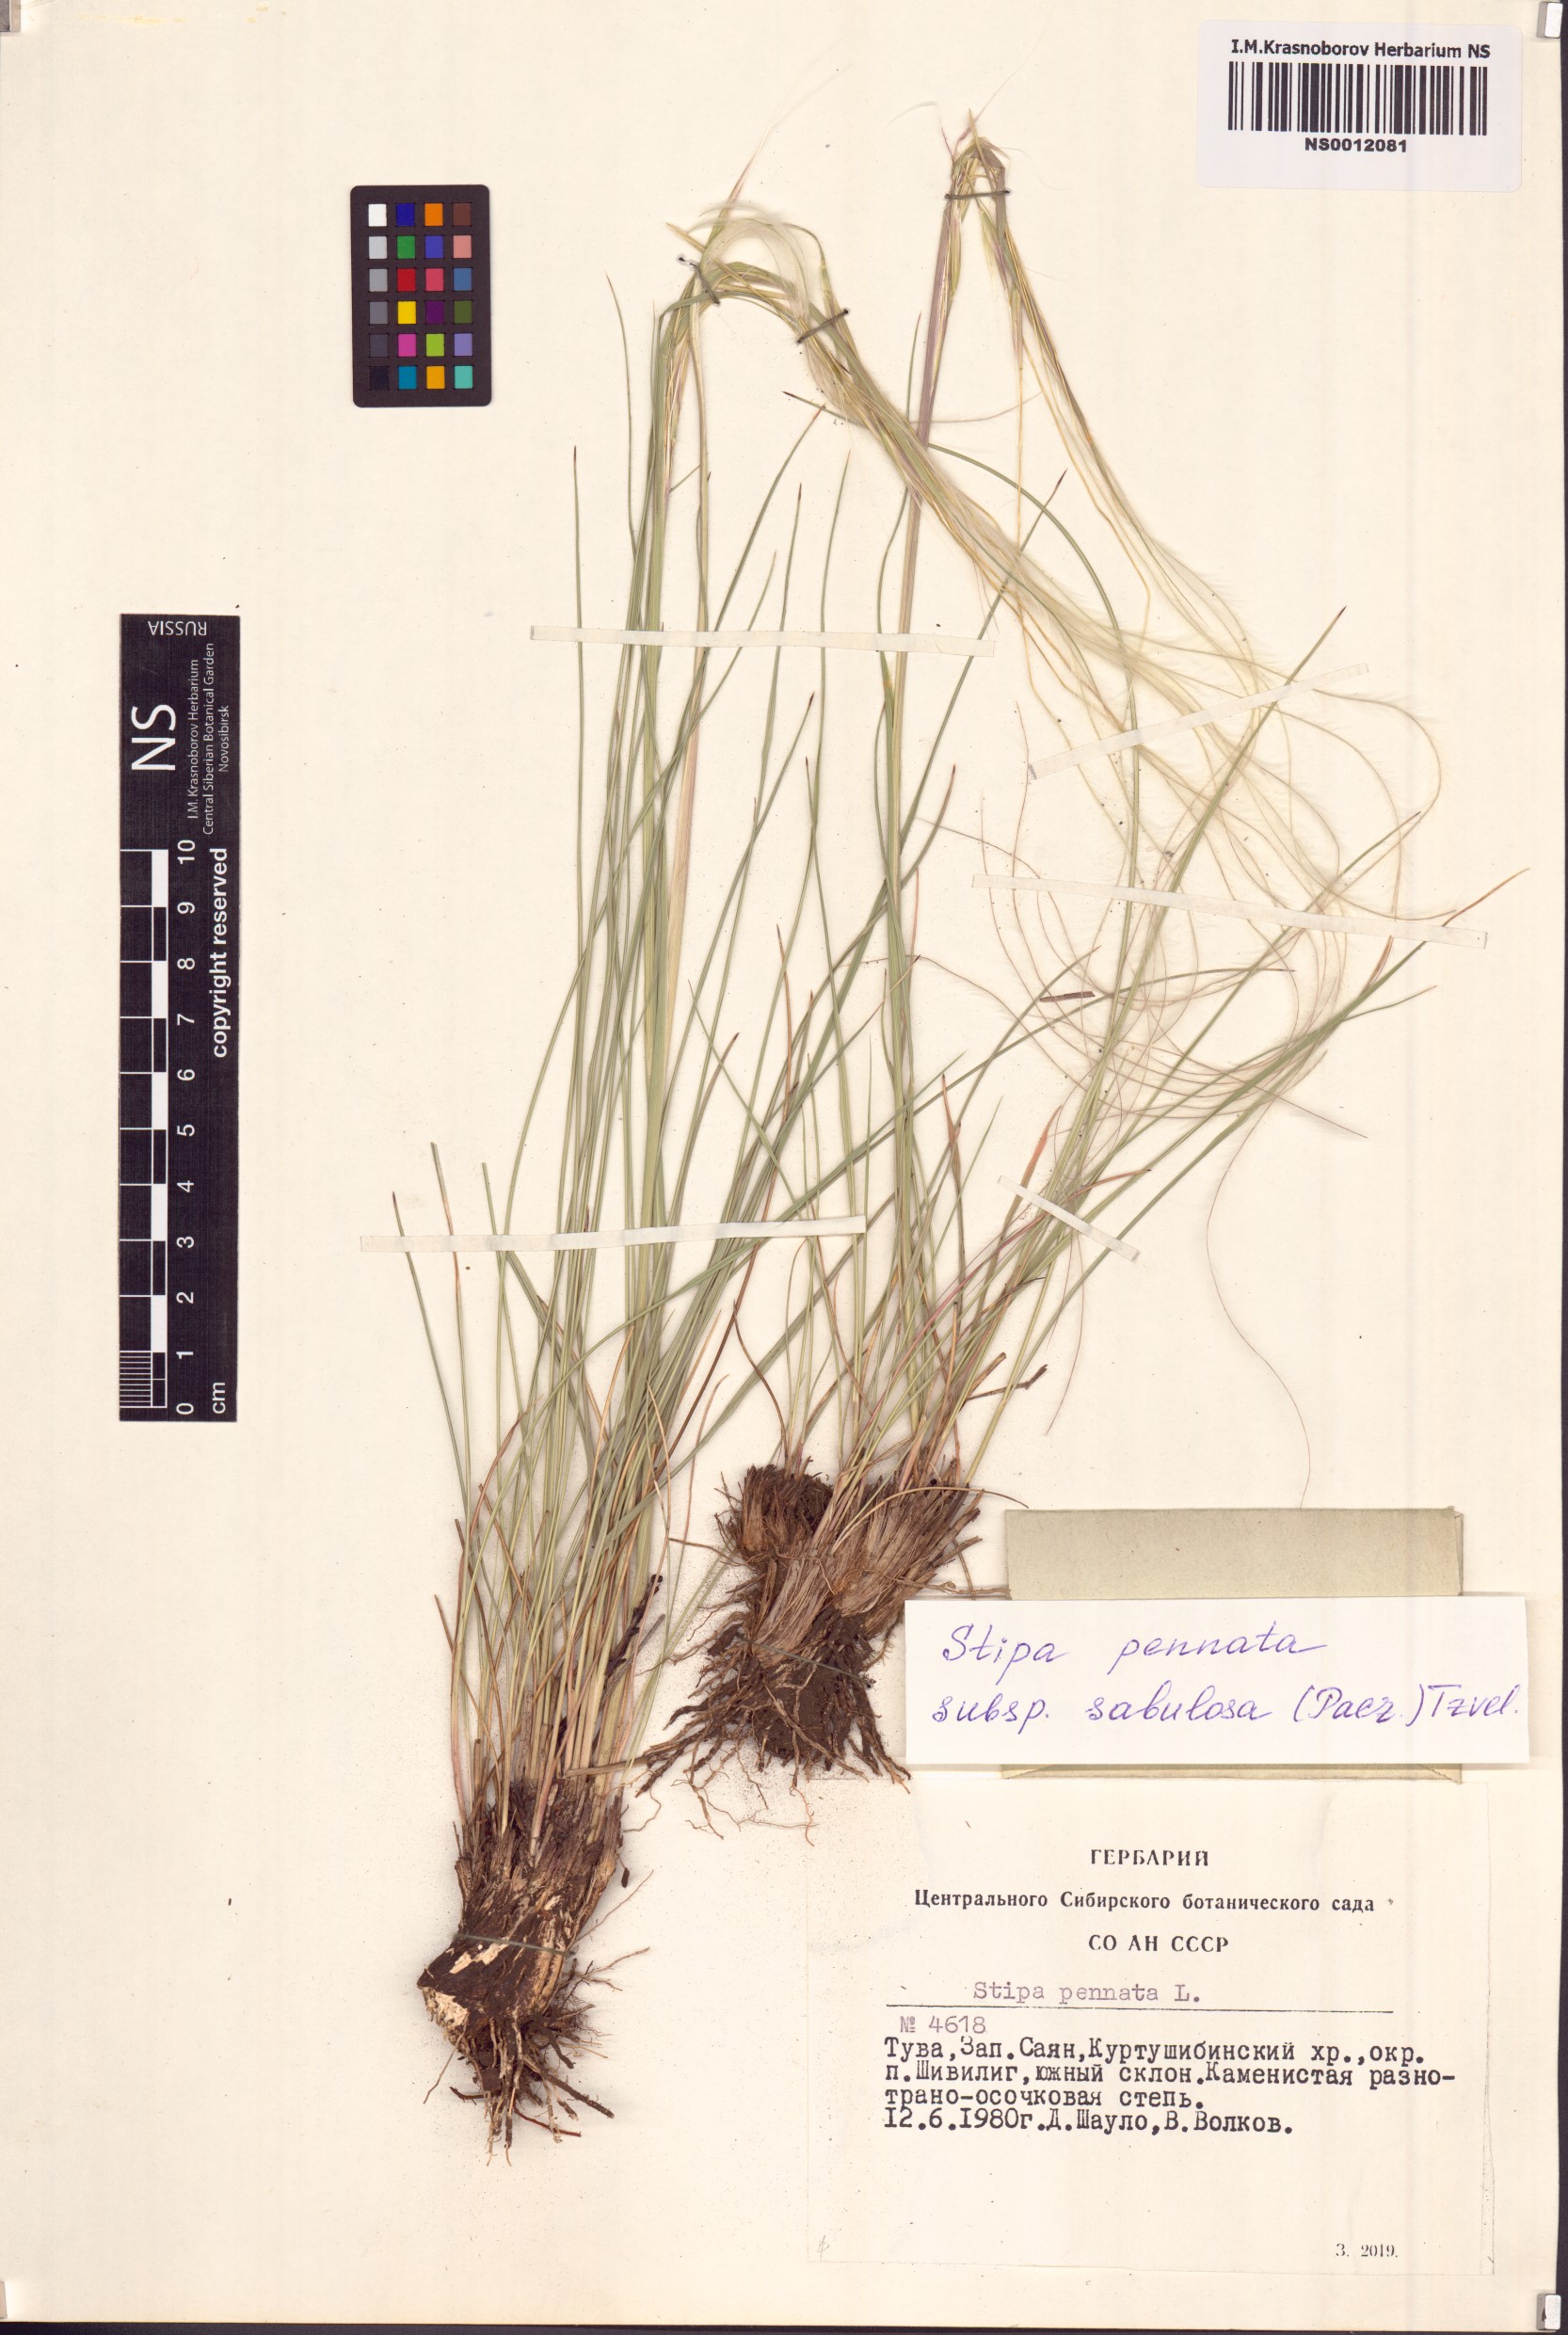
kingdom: Plantae
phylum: Tracheophyta
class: Liliopsida
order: Poales
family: Poaceae
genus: Stipa
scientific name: Stipa borysthenica
